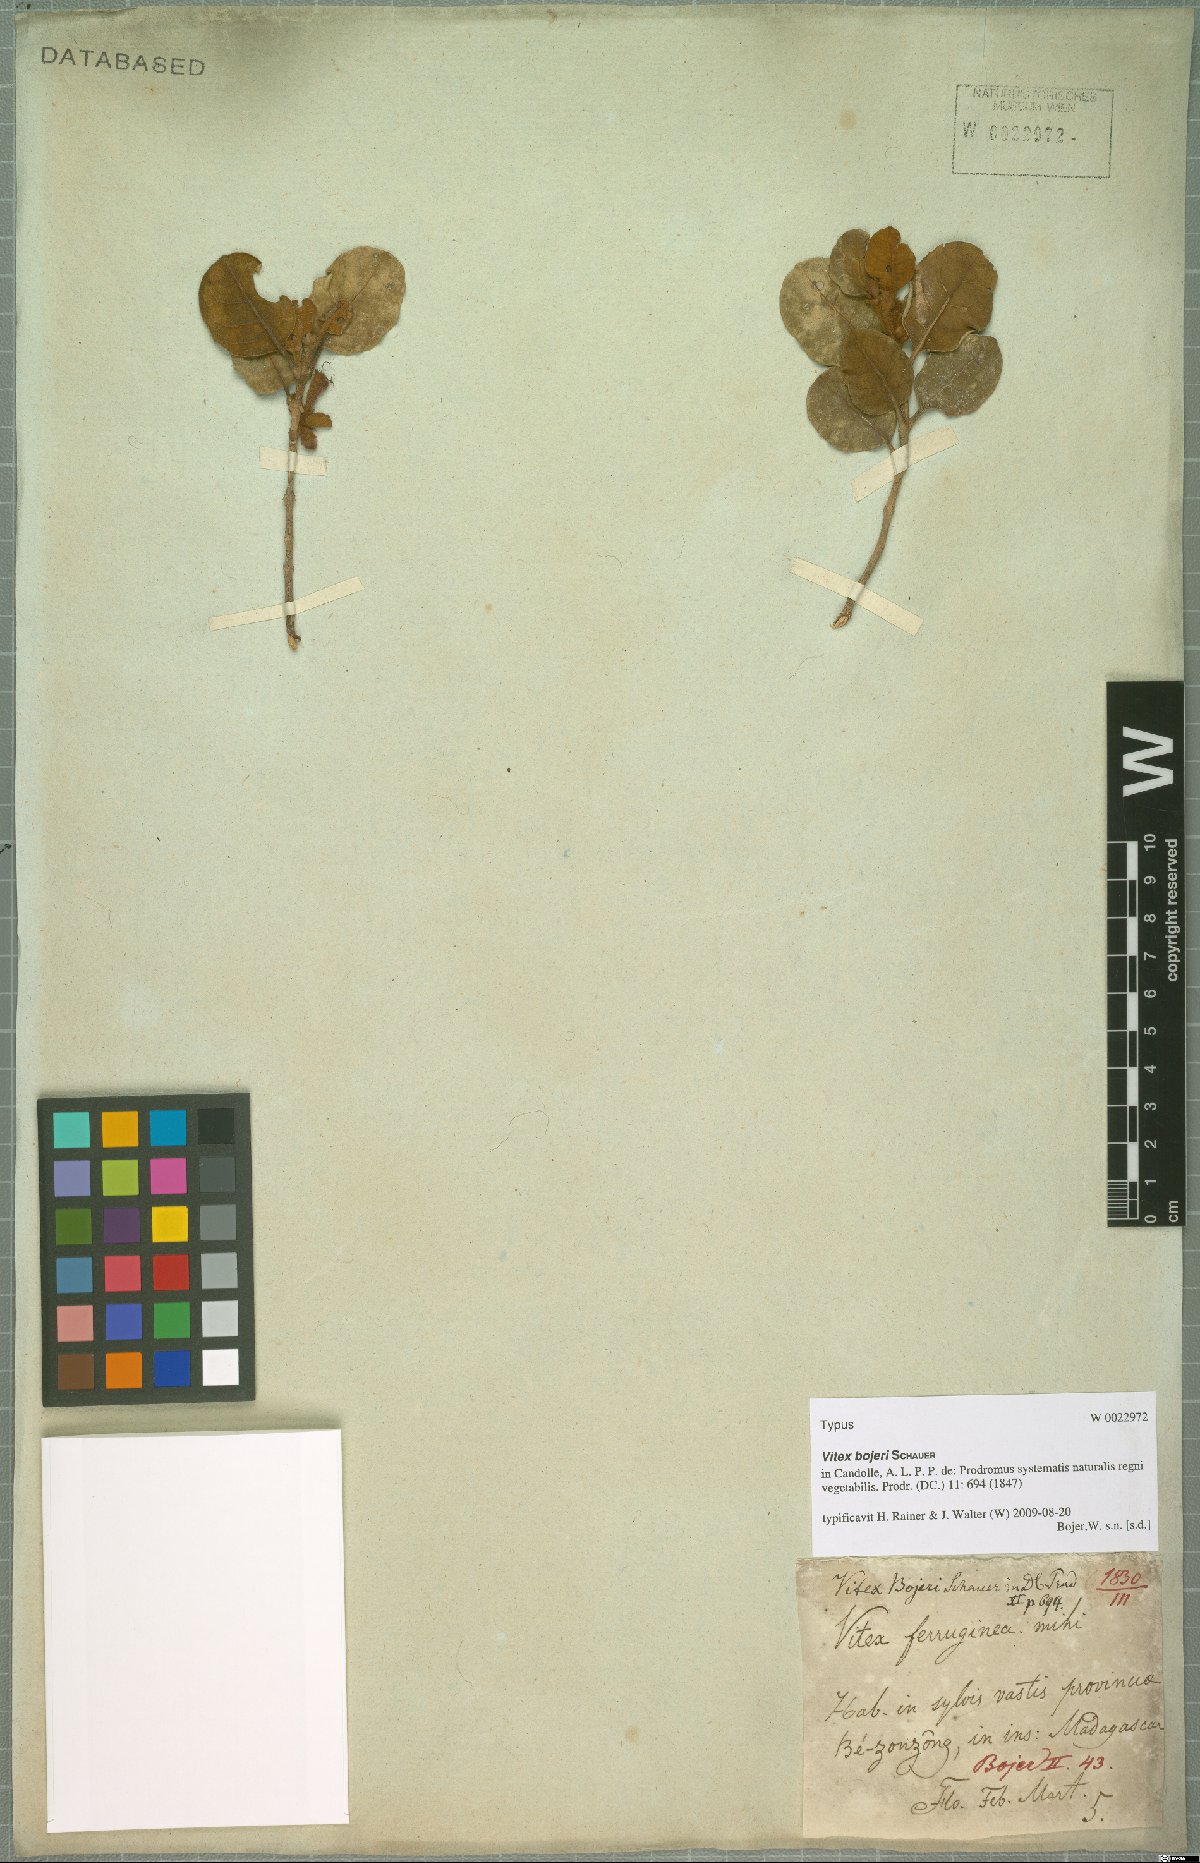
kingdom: Plantae
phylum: Tracheophyta
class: Magnoliopsida
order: Lamiales
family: Lamiaceae
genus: Vitex
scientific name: Vitex bojeri
